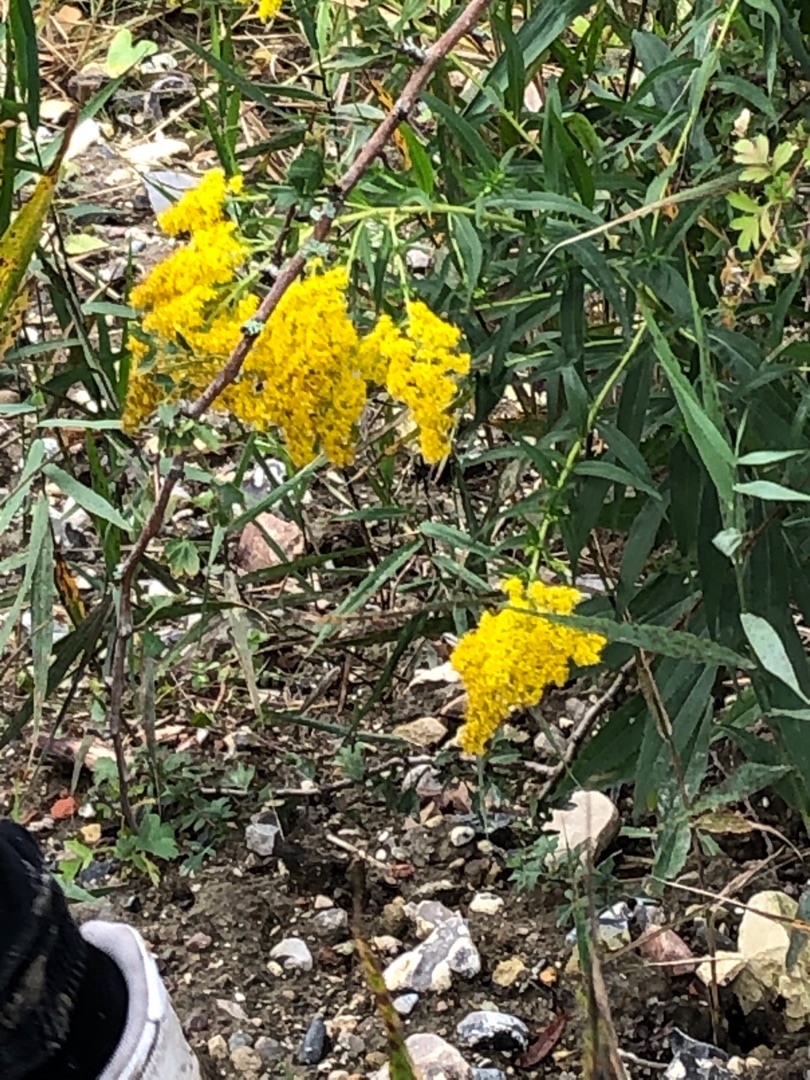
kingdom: Plantae
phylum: Tracheophyta
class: Magnoliopsida
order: Asterales
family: Asteraceae
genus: Solidago
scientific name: Solidago gigantea
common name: Sildig gyldenris
